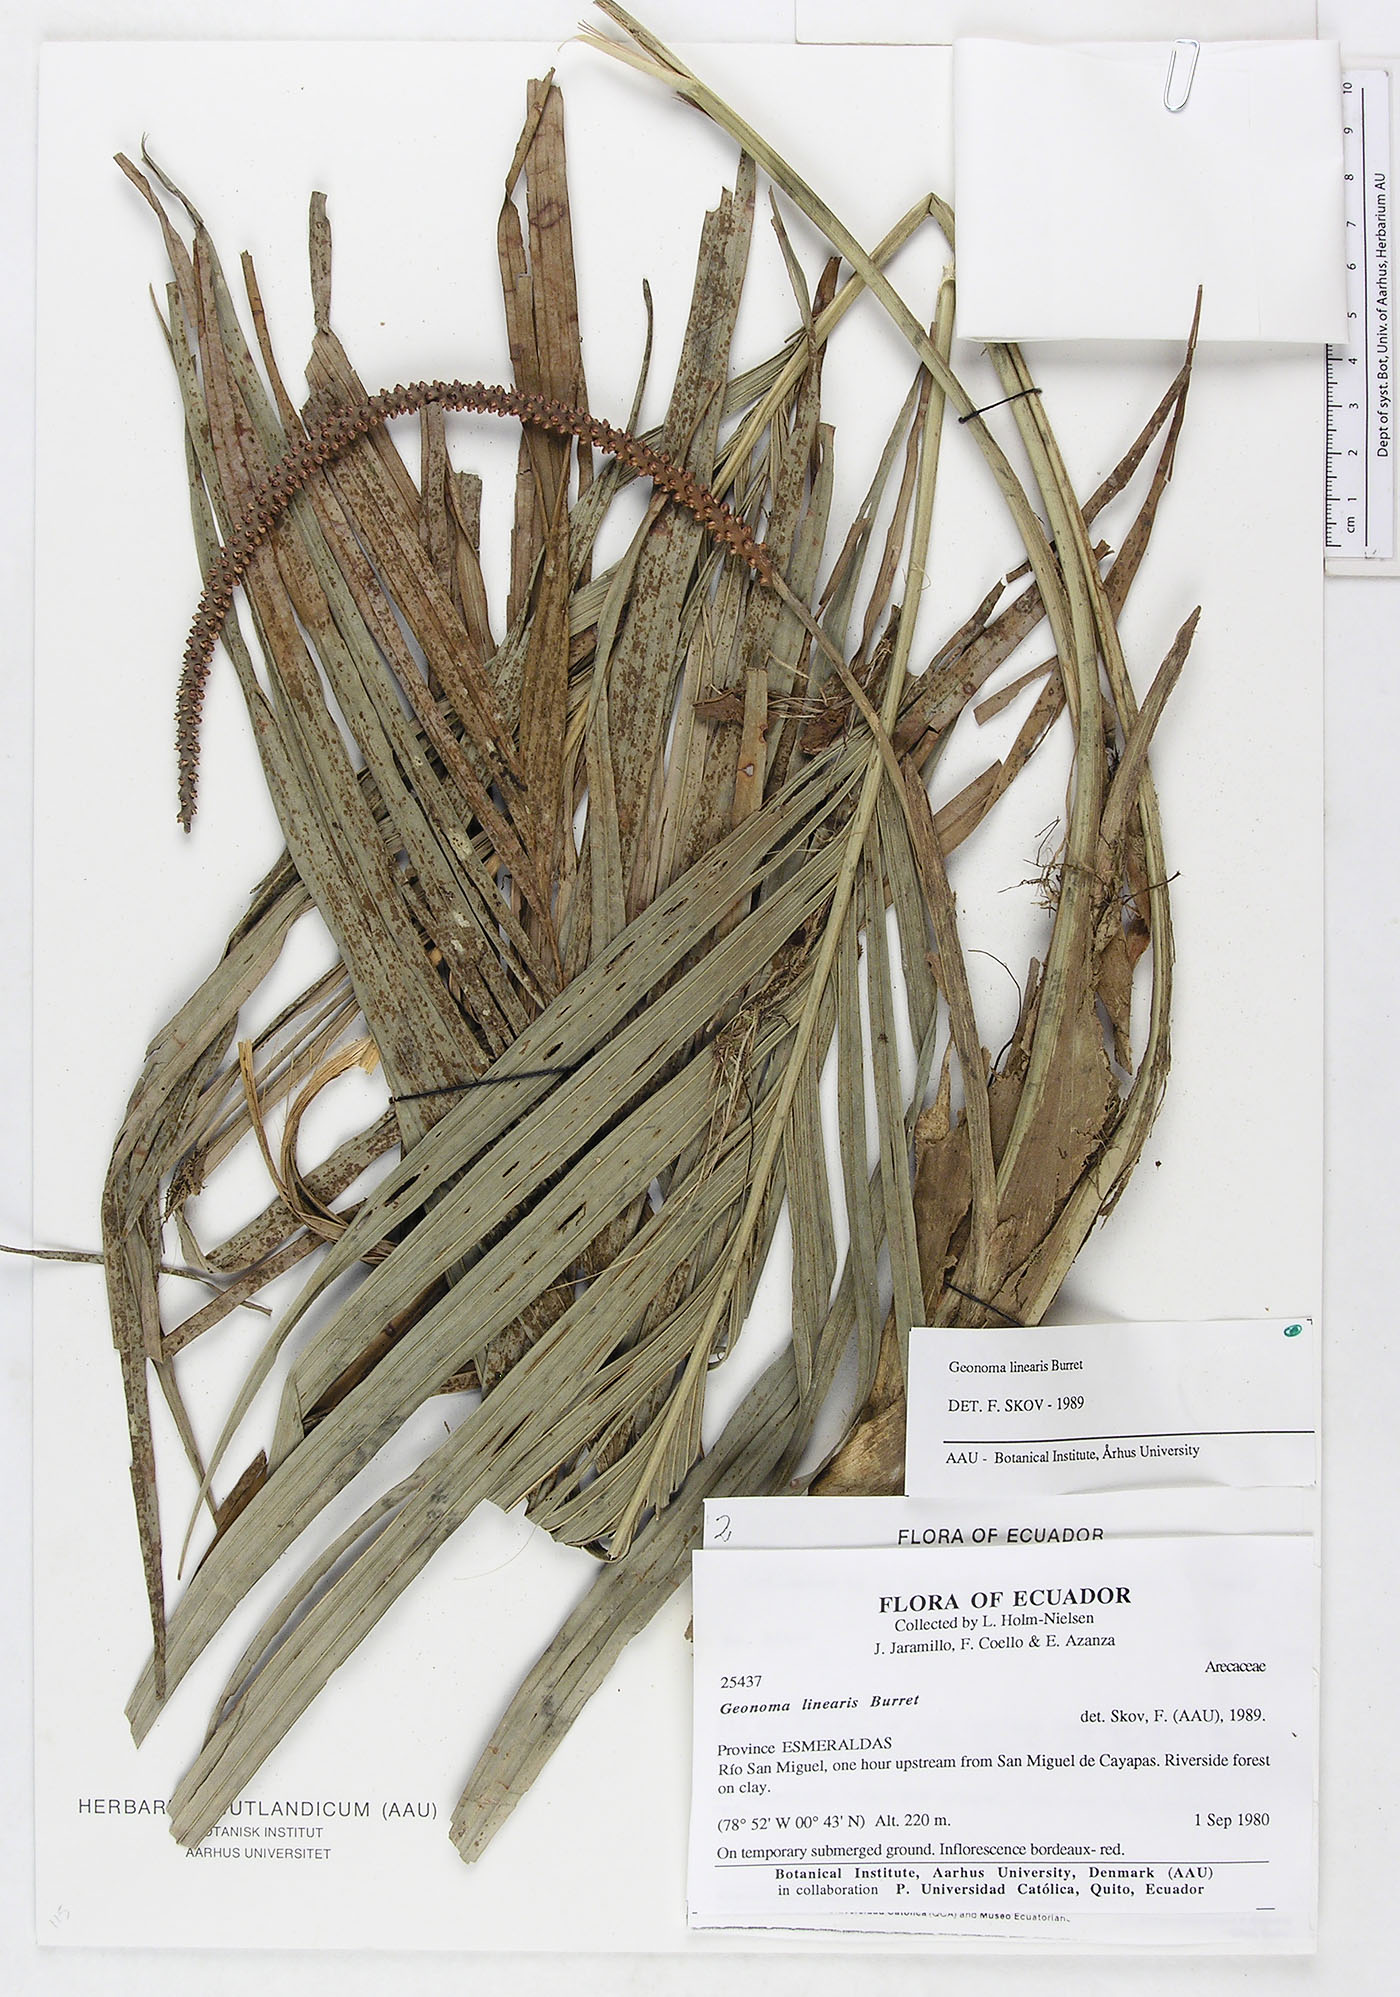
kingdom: Plantae
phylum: Tracheophyta
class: Liliopsida
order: Arecales
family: Arecaceae
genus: Geonoma
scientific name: Geonoma cuneata
